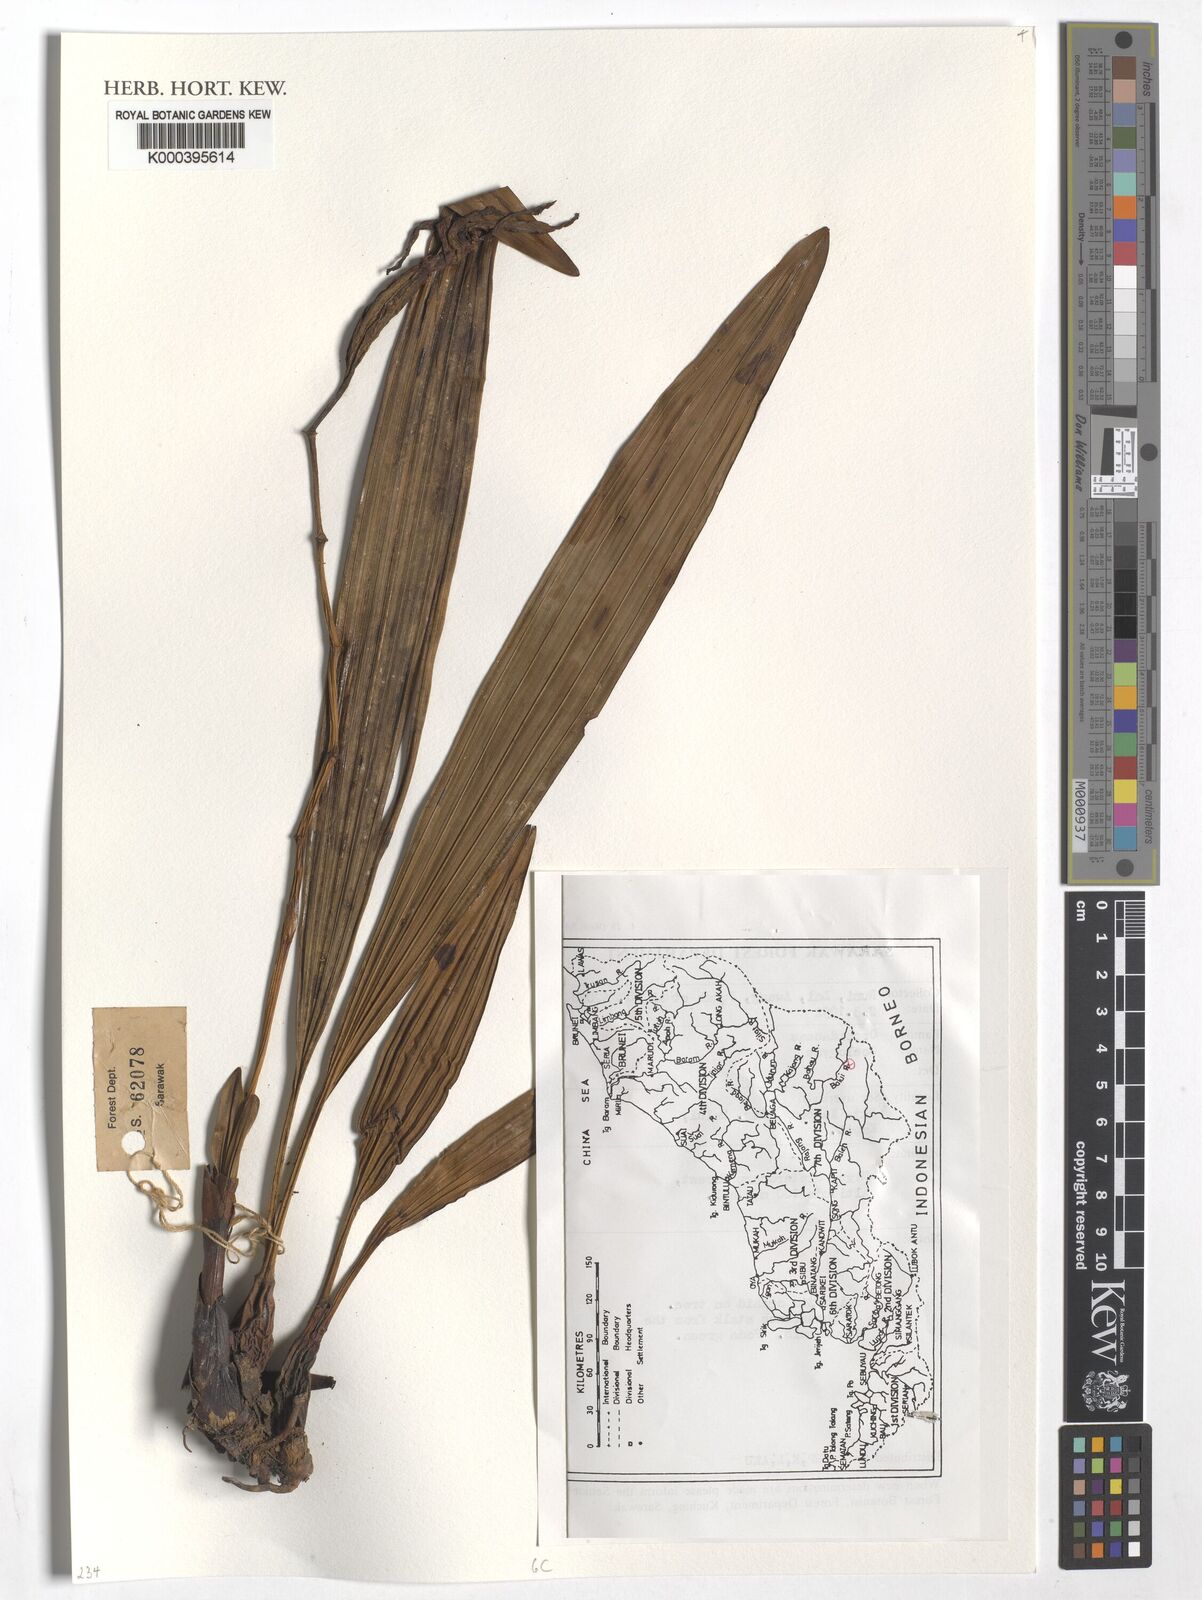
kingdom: Plantae
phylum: Tracheophyta
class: Liliopsida
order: Asparagales
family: Orchidaceae
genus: Coelogyne
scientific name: Coelogyne
